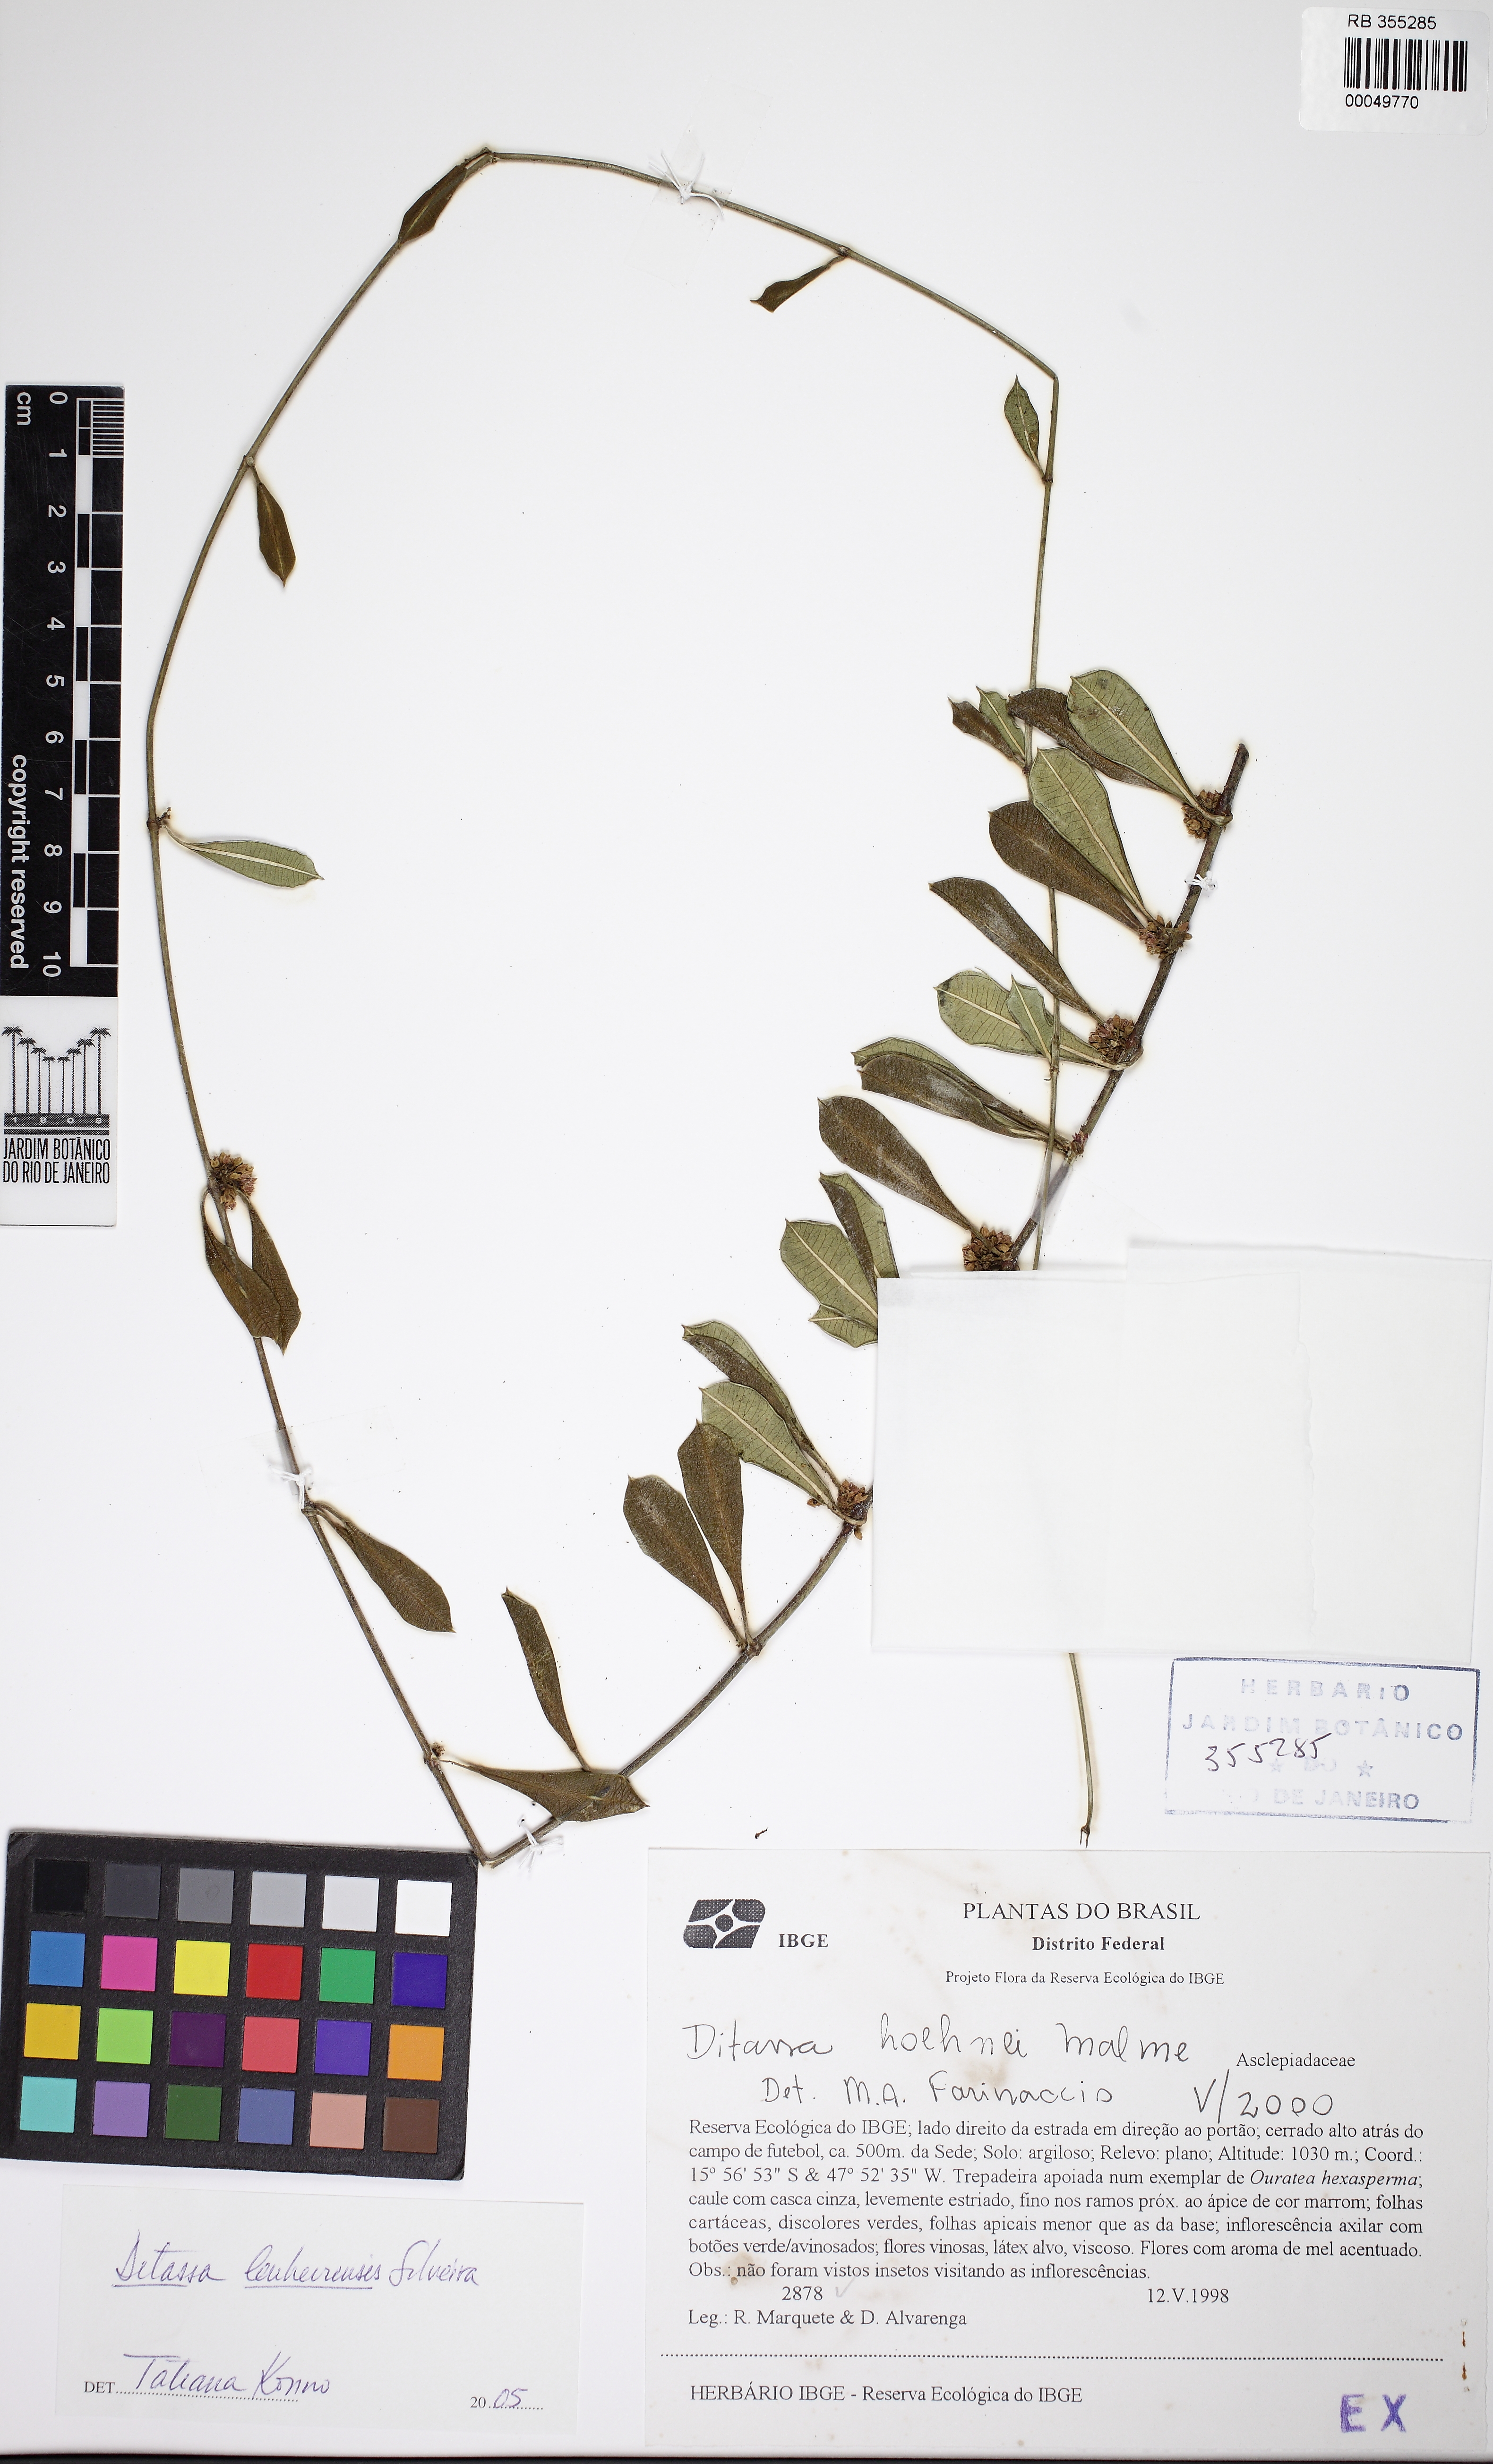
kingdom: Plantae
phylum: Tracheophyta
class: Magnoliopsida
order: Gentianales
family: Apocynaceae
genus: Ditassa
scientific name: Ditassa lenheirensis
